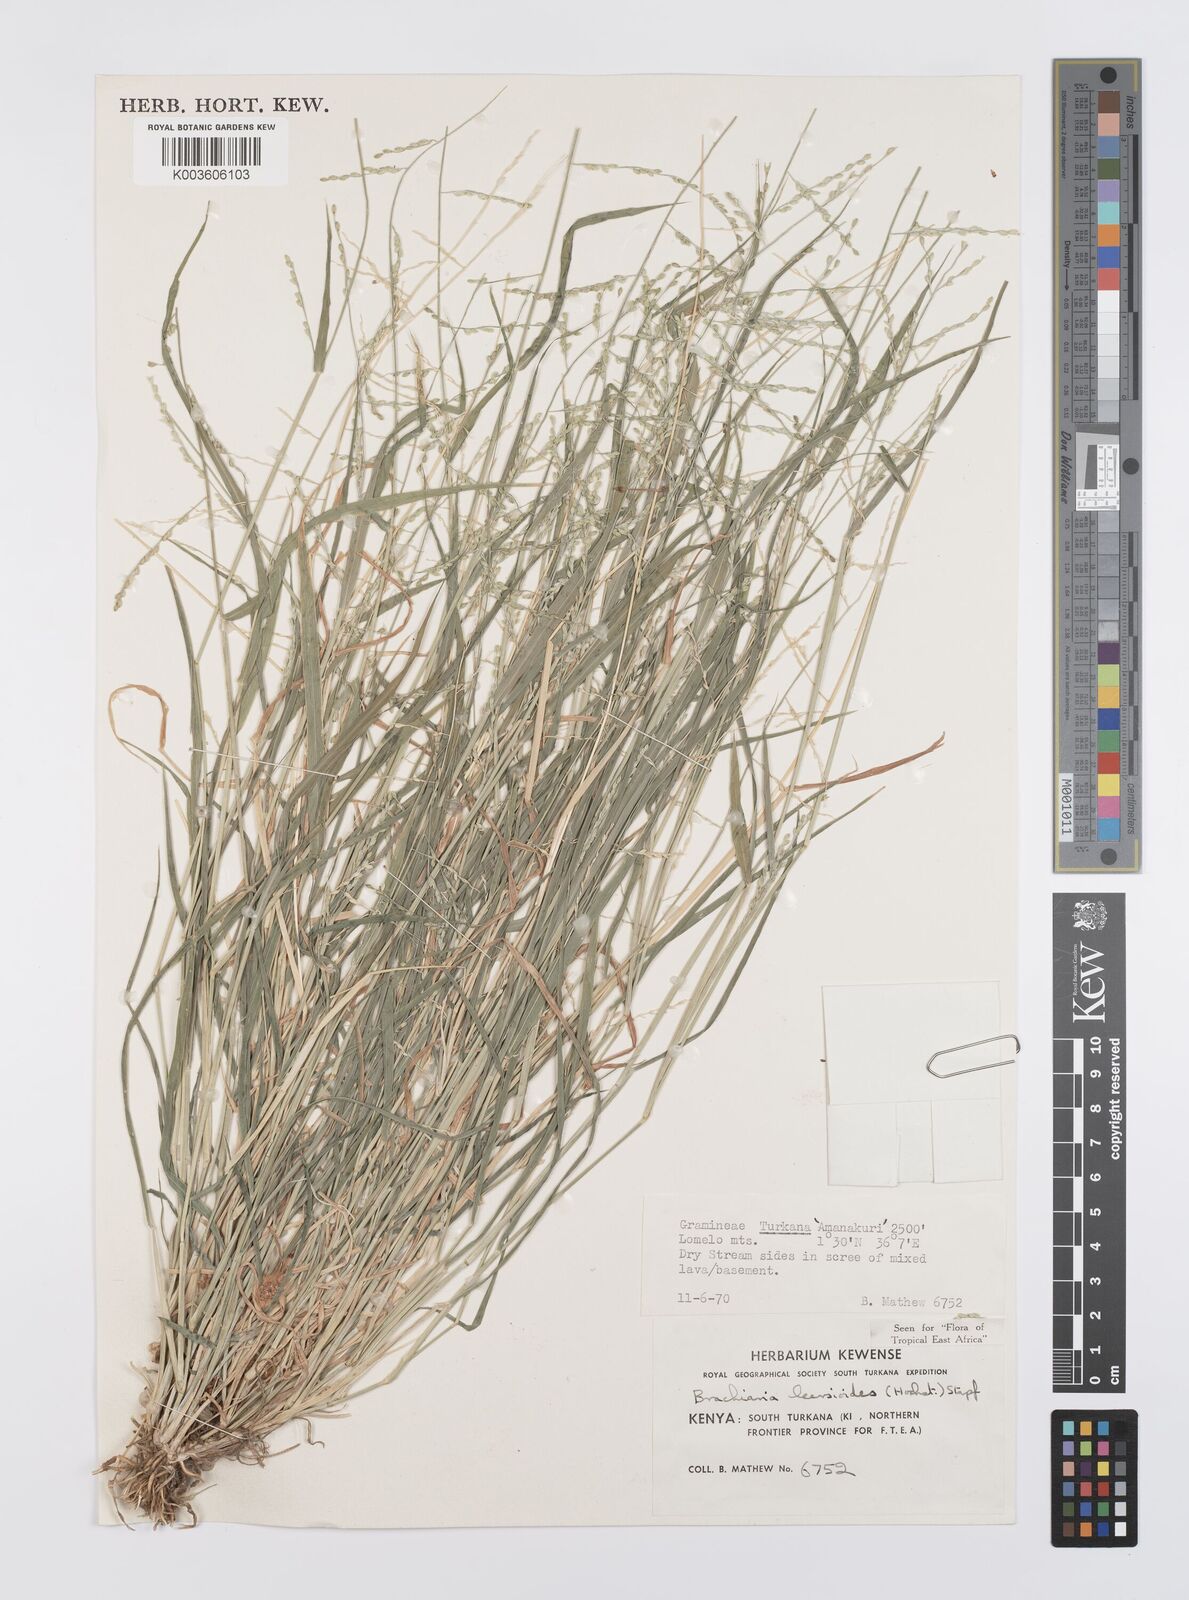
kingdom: Plantae
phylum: Tracheophyta
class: Liliopsida
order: Poales
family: Poaceae
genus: Urochloa
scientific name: Urochloa leersioides
